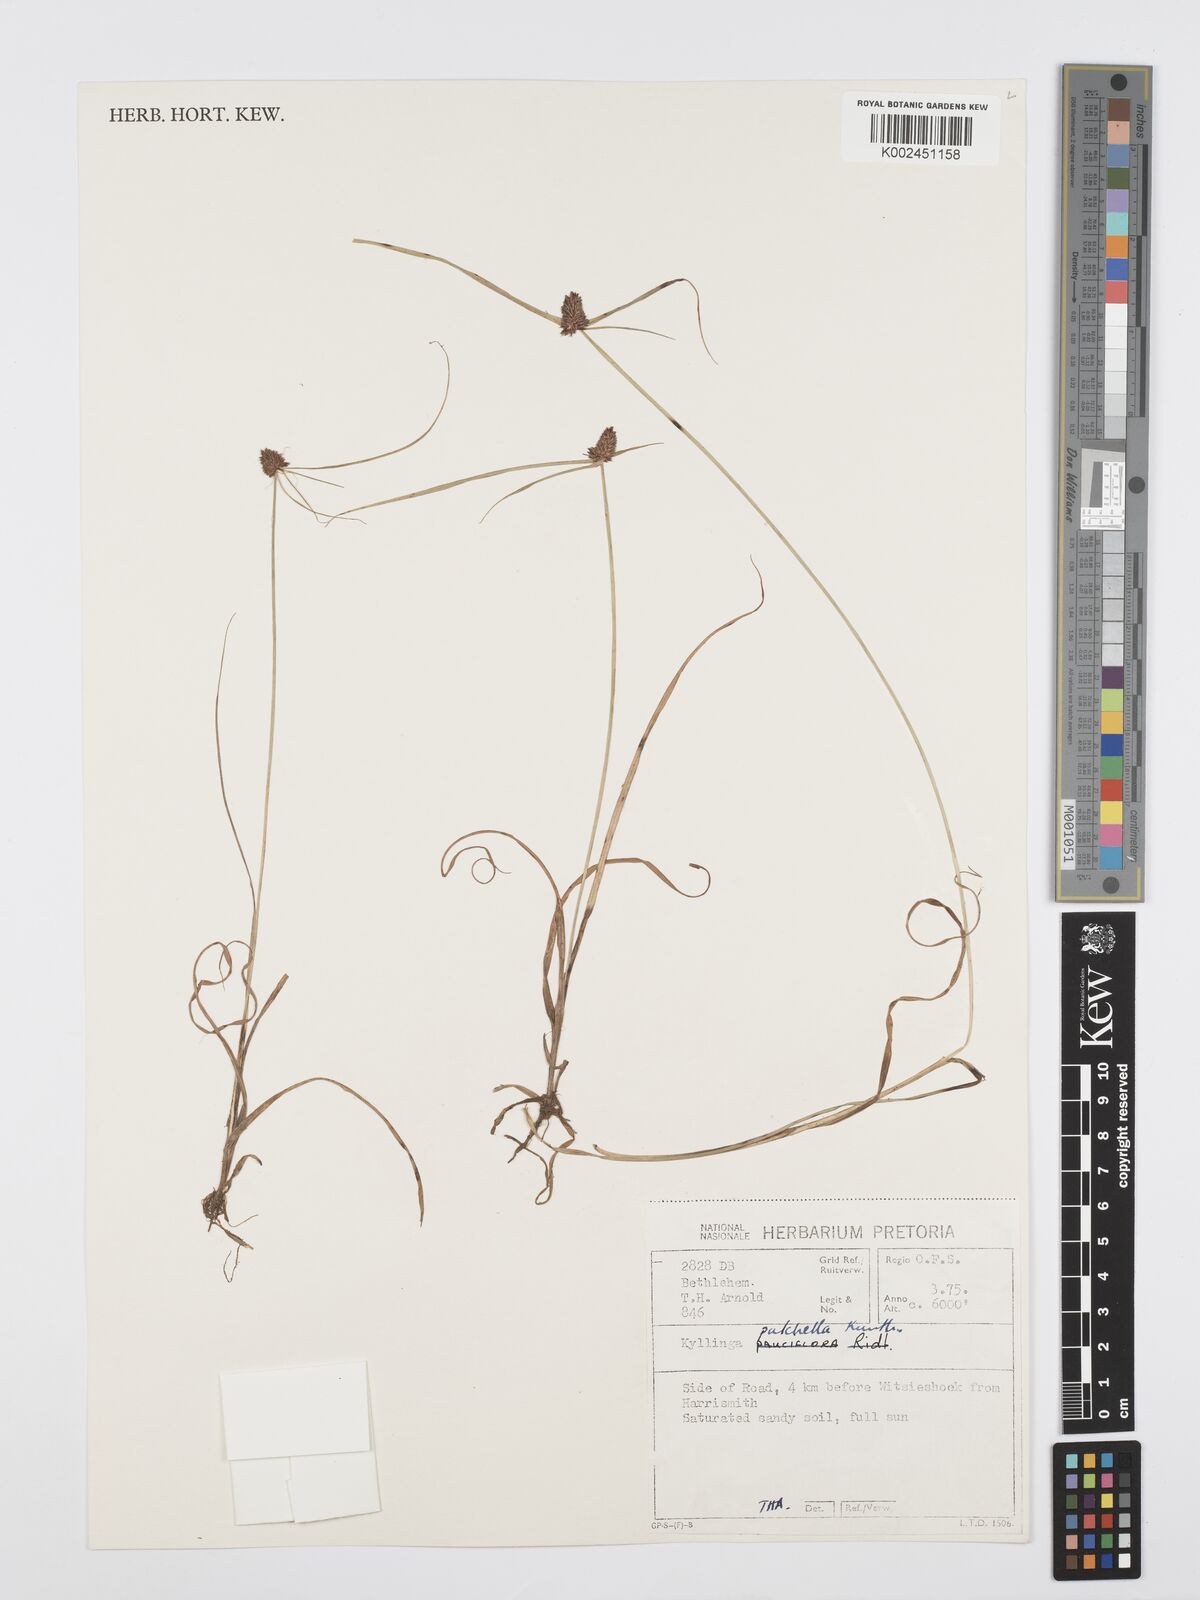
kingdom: Plantae
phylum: Tracheophyta
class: Liliopsida
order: Poales
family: Cyperaceae
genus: Cyperus
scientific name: Cyperus
